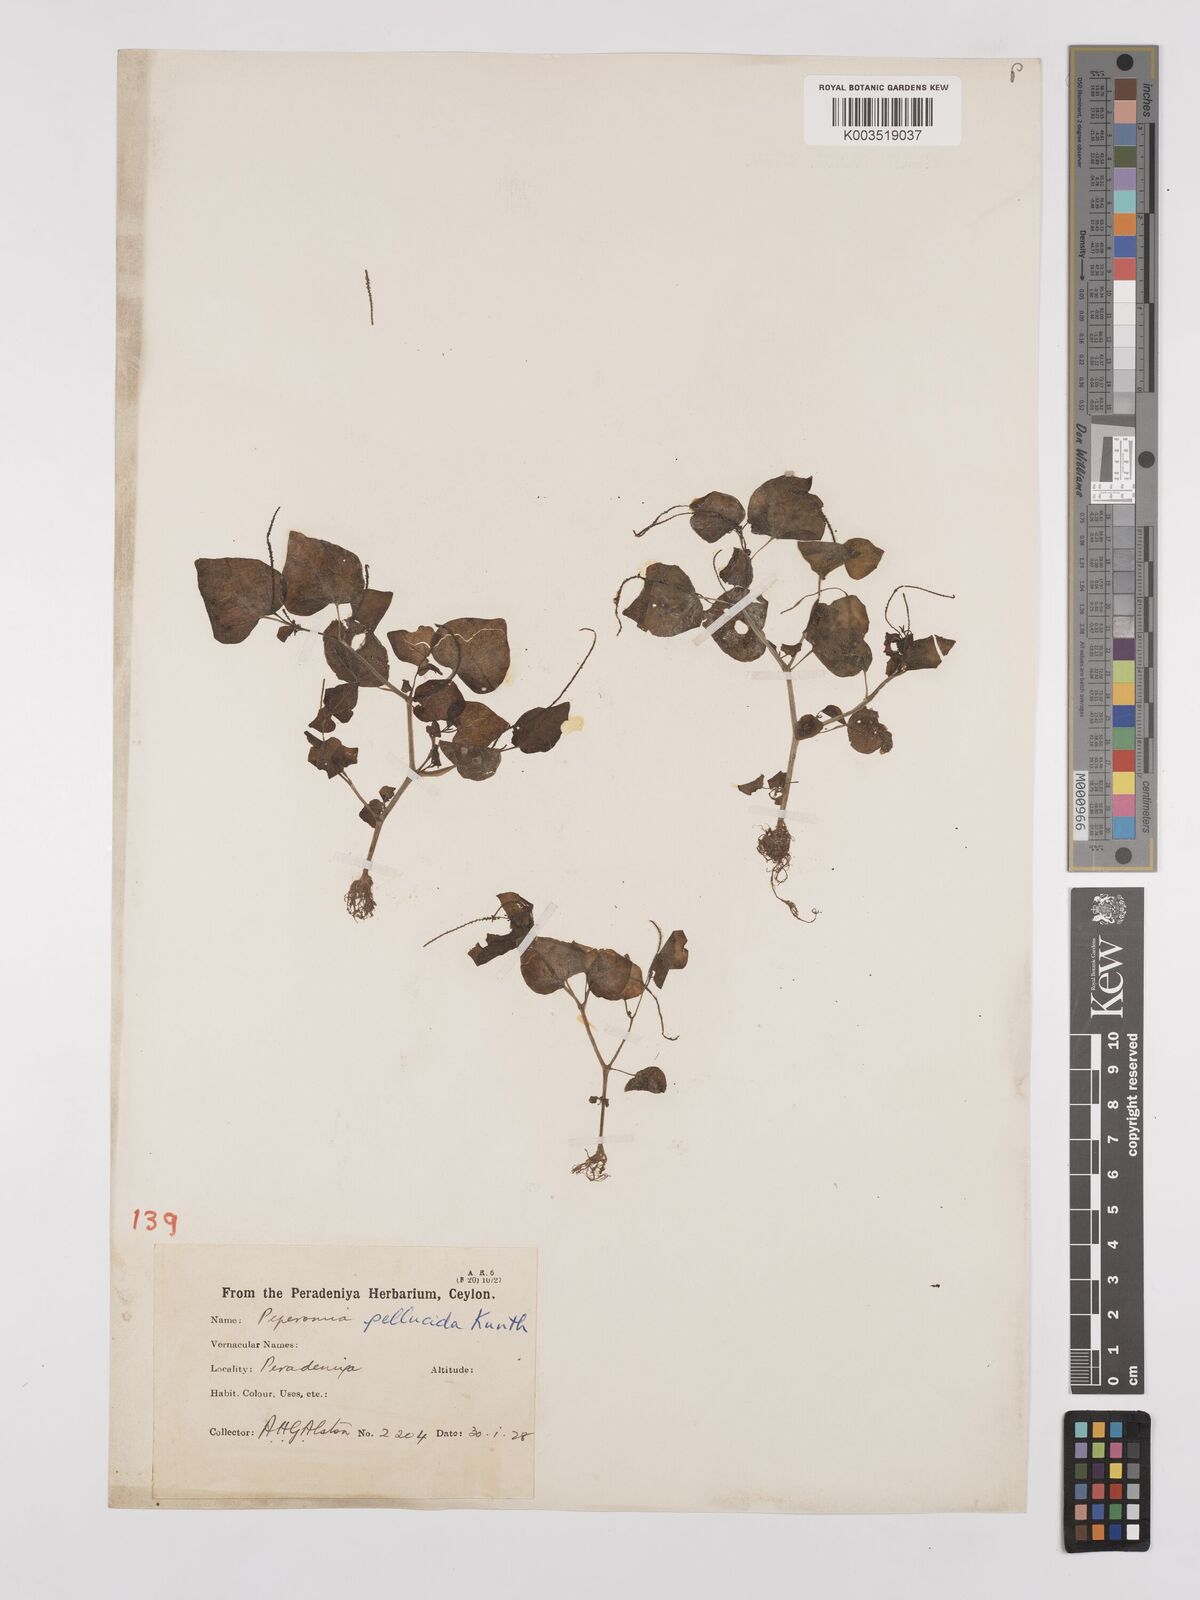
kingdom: Plantae
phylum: Tracheophyta
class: Magnoliopsida
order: Piperales
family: Piperaceae
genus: Peperomia
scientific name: Peperomia pellucida
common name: Man to man
